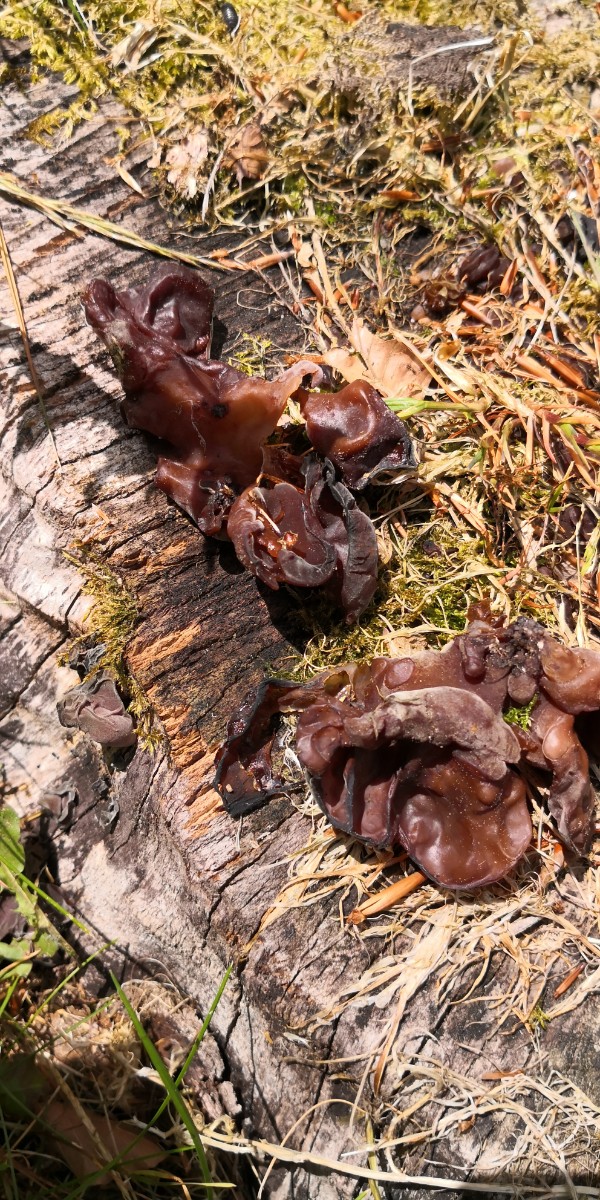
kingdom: Fungi
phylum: Basidiomycota
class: Agaricomycetes
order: Auriculariales
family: Auriculariaceae
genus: Auricularia
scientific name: Auricularia auricula-judae
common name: almindelig judasøre
